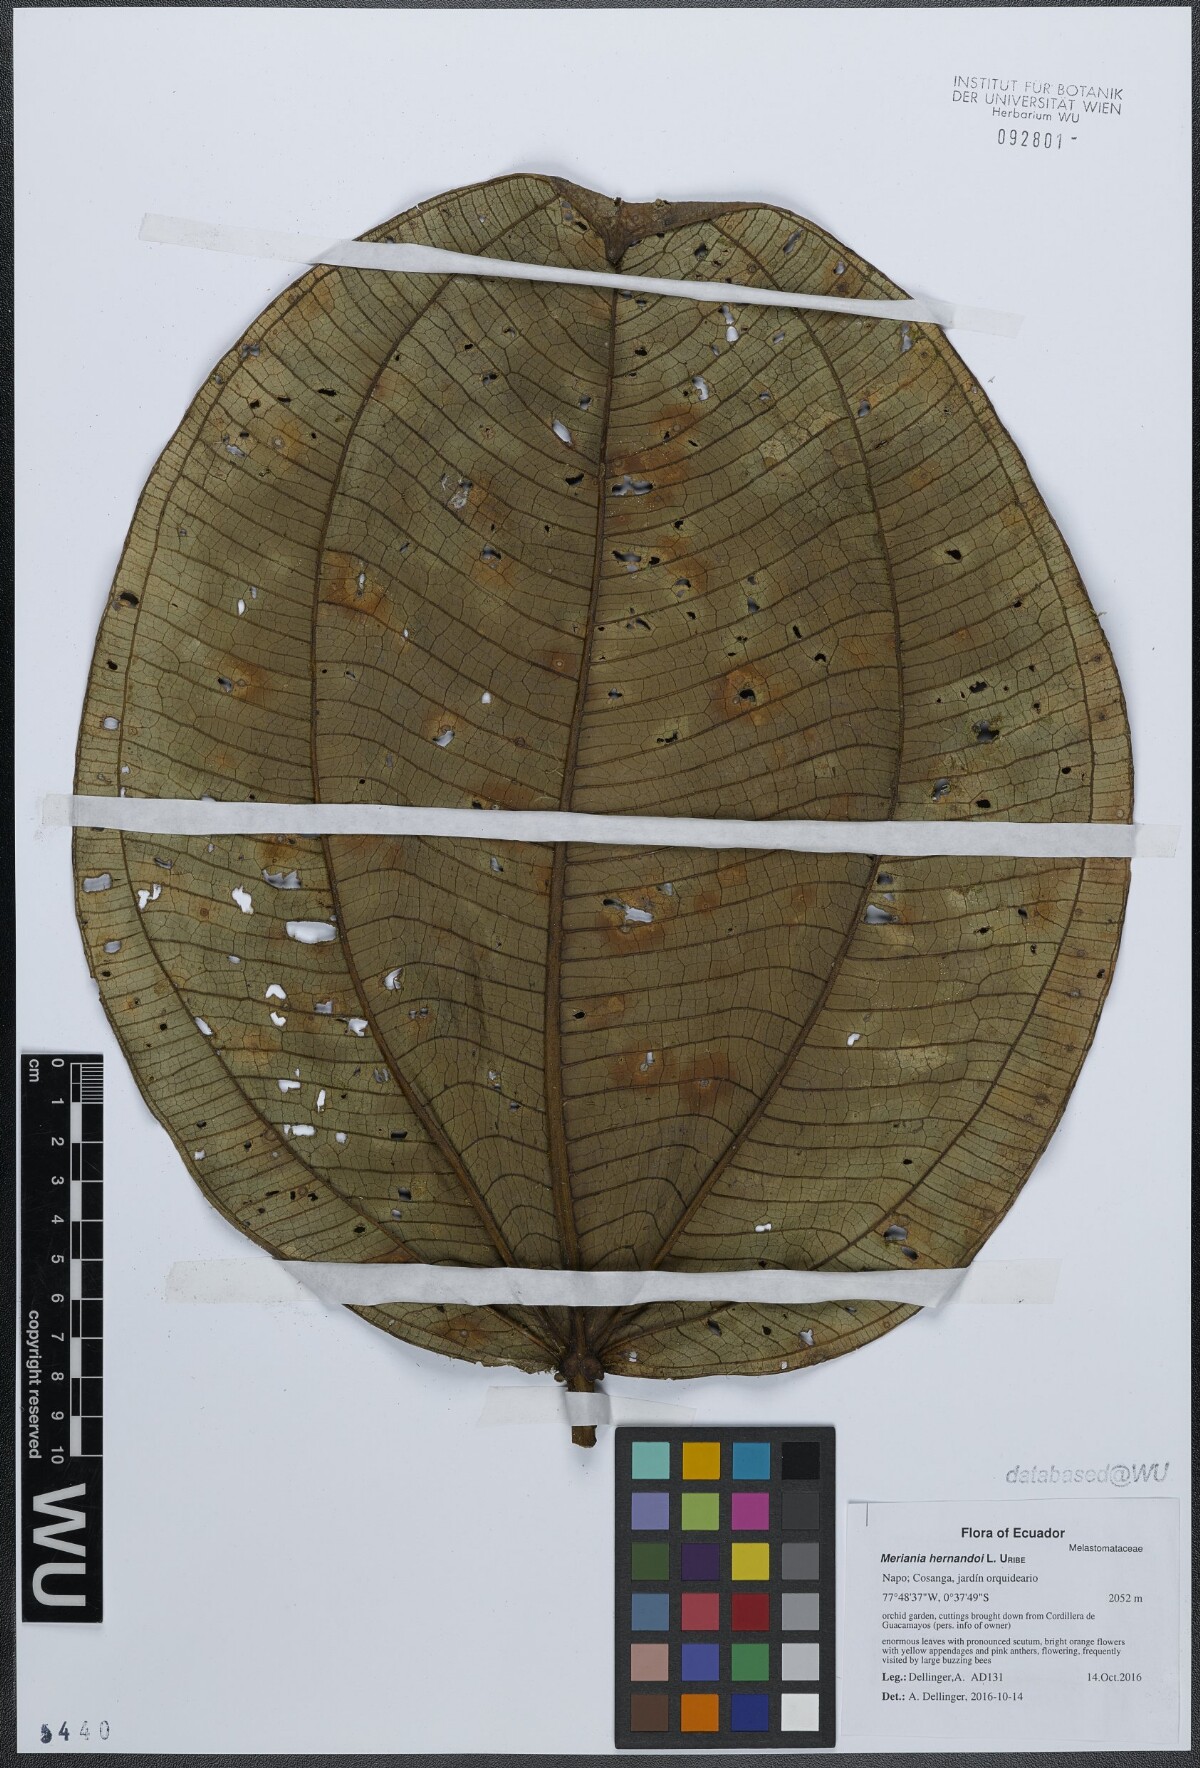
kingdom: Plantae
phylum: Tracheophyta
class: Magnoliopsida
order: Myrtales
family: Melastomataceae
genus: Meriania
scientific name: Meriania hernandoi
